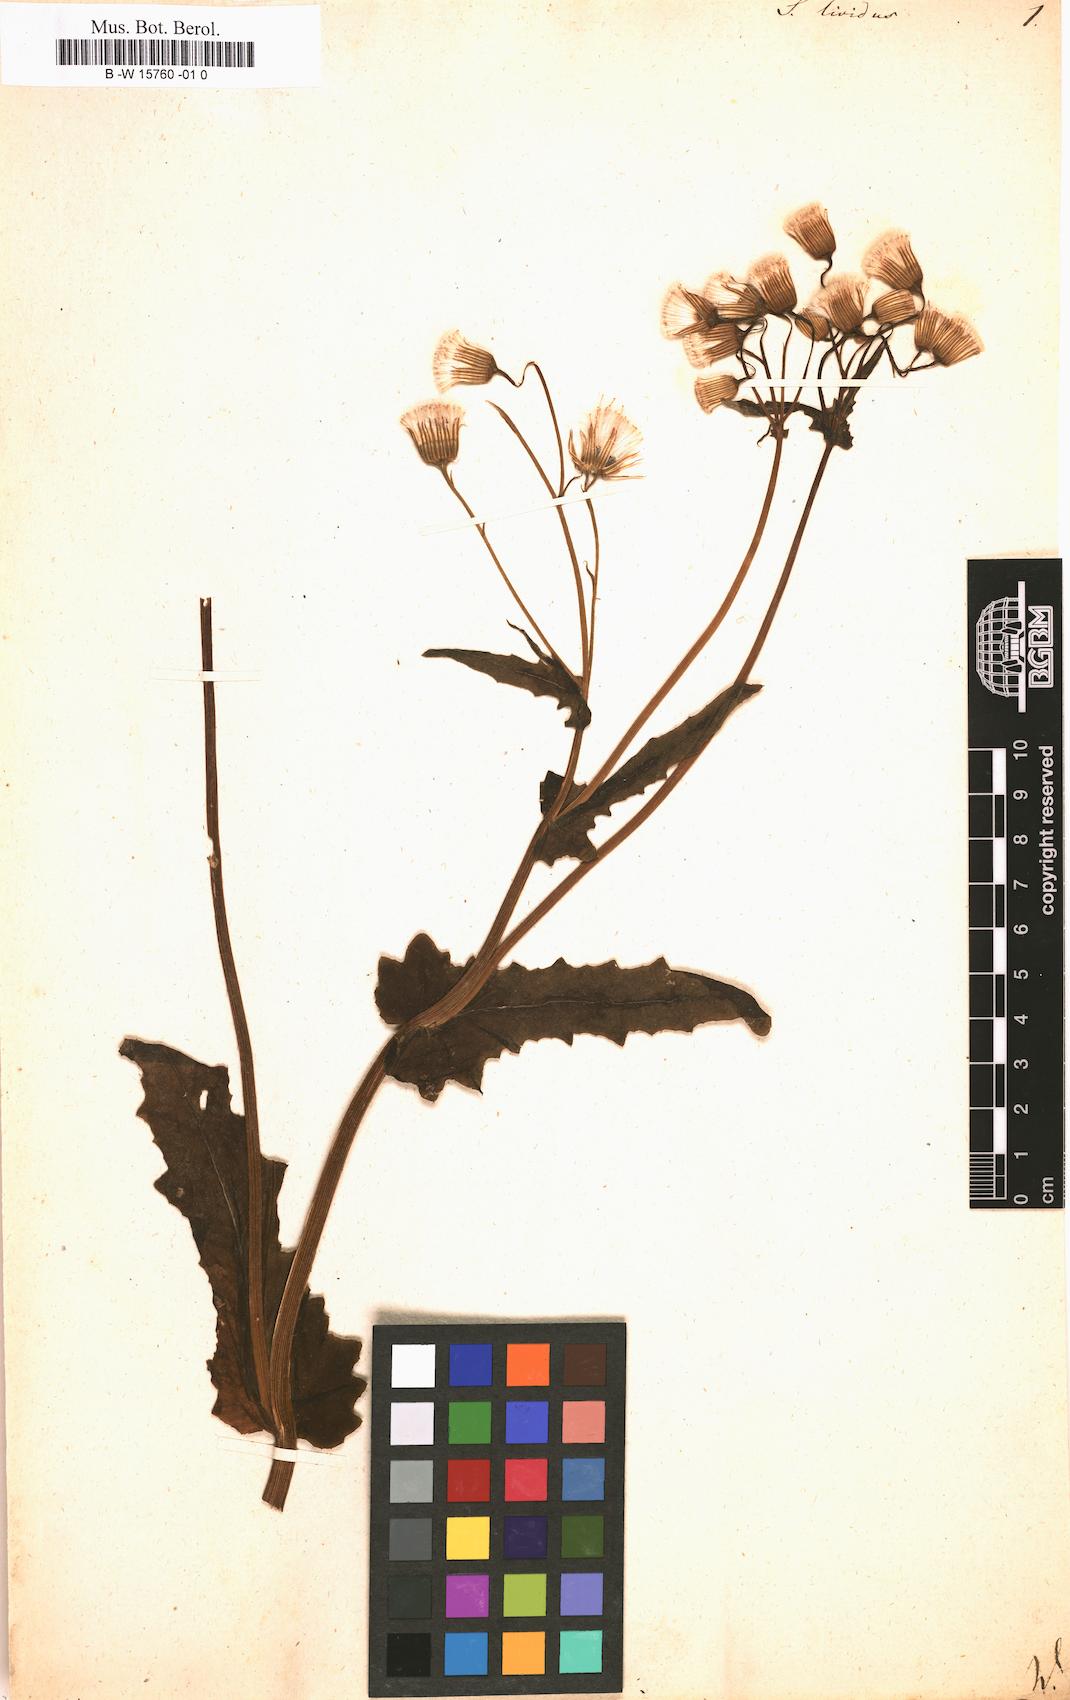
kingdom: Plantae
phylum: Tracheophyta
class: Magnoliopsida
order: Asterales
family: Asteraceae
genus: Senecio
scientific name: Senecio lividus
